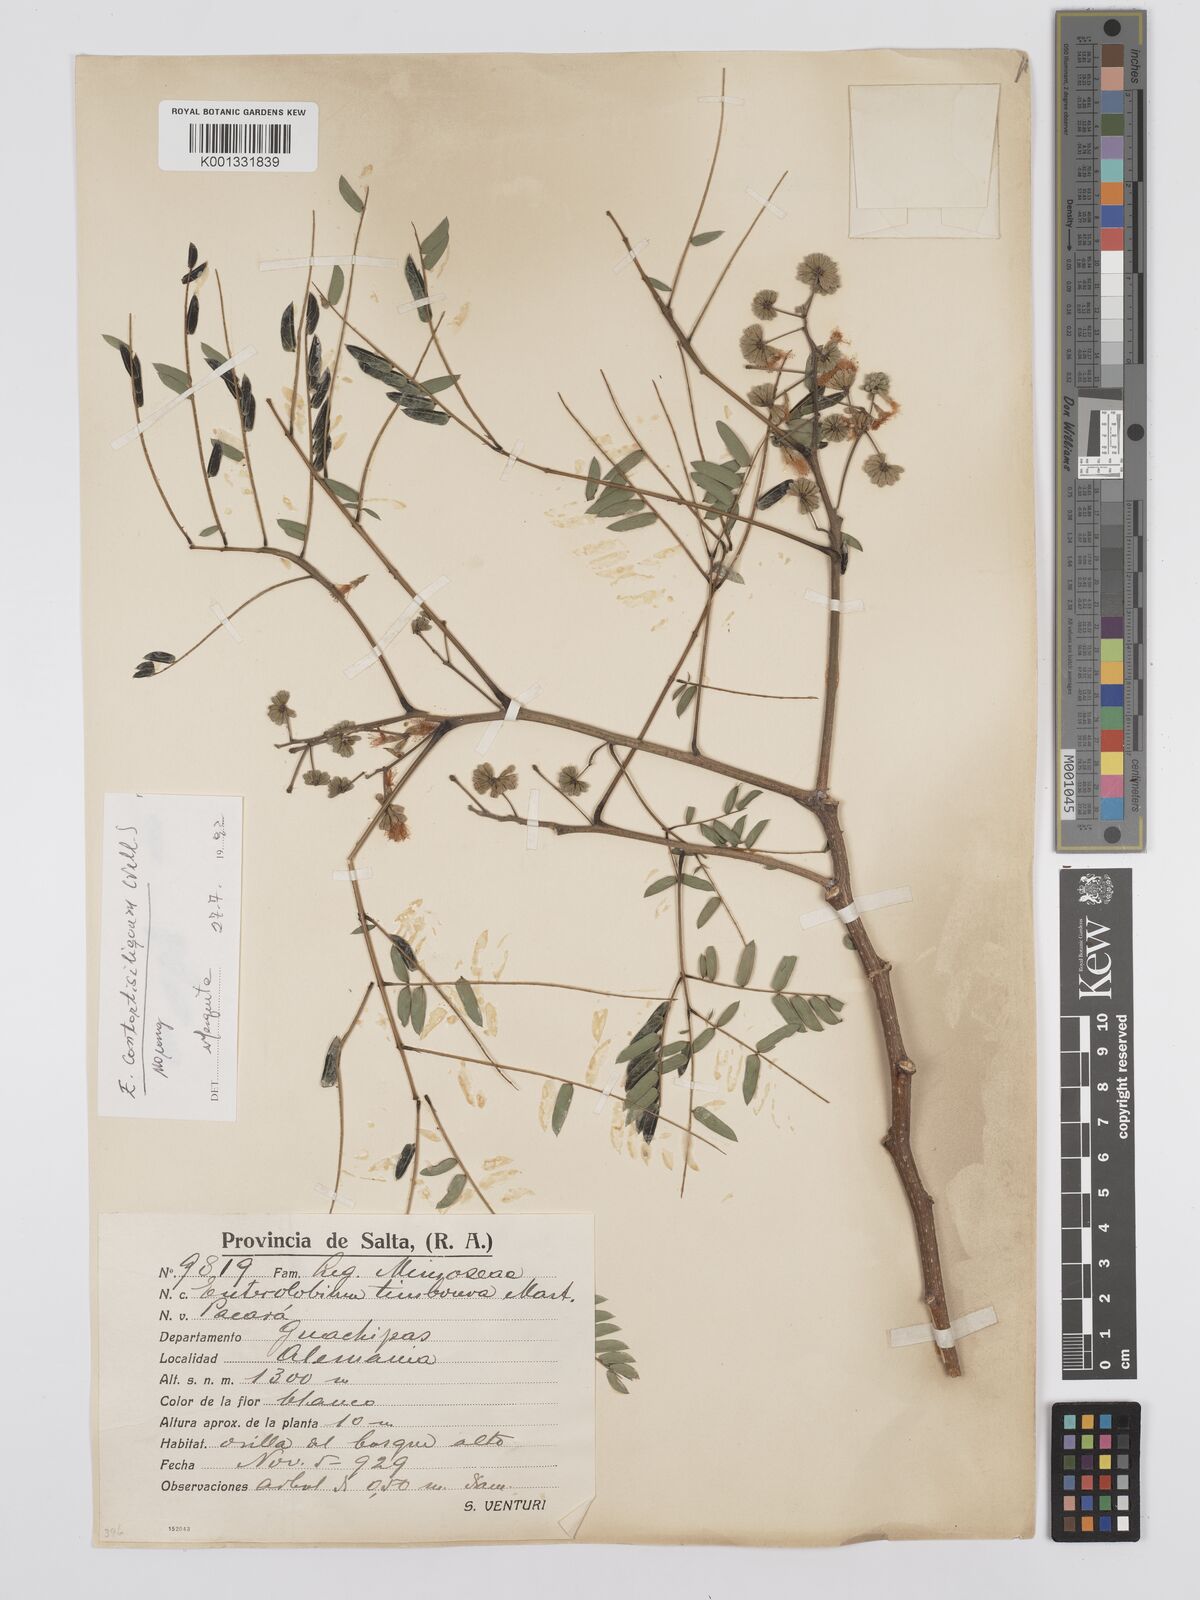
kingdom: Plantae
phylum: Tracheophyta
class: Magnoliopsida
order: Fabales
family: Fabaceae
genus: Enterolobium
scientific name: Enterolobium contortisiliquum
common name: Pacara earpod tree
